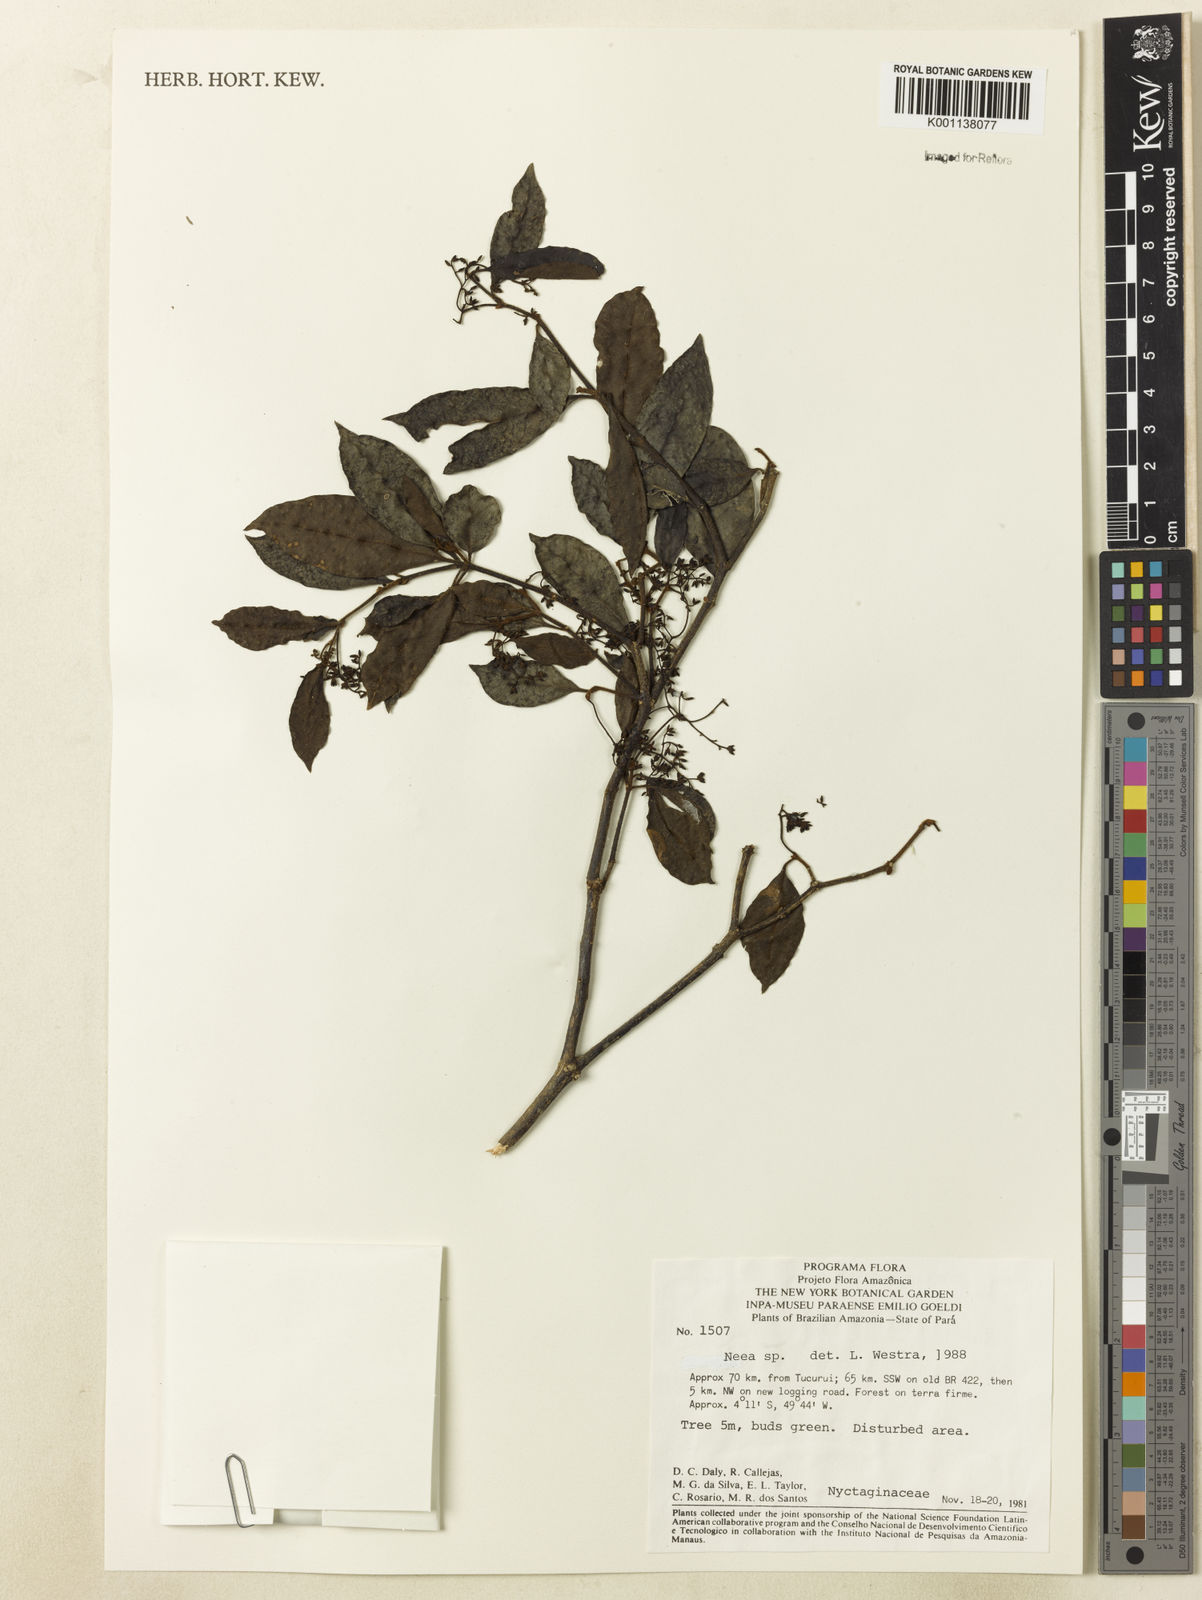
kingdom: Plantae
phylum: Tracheophyta
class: Magnoliopsida
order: Caryophyllales
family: Nyctaginaceae
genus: Neea
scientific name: Neea
